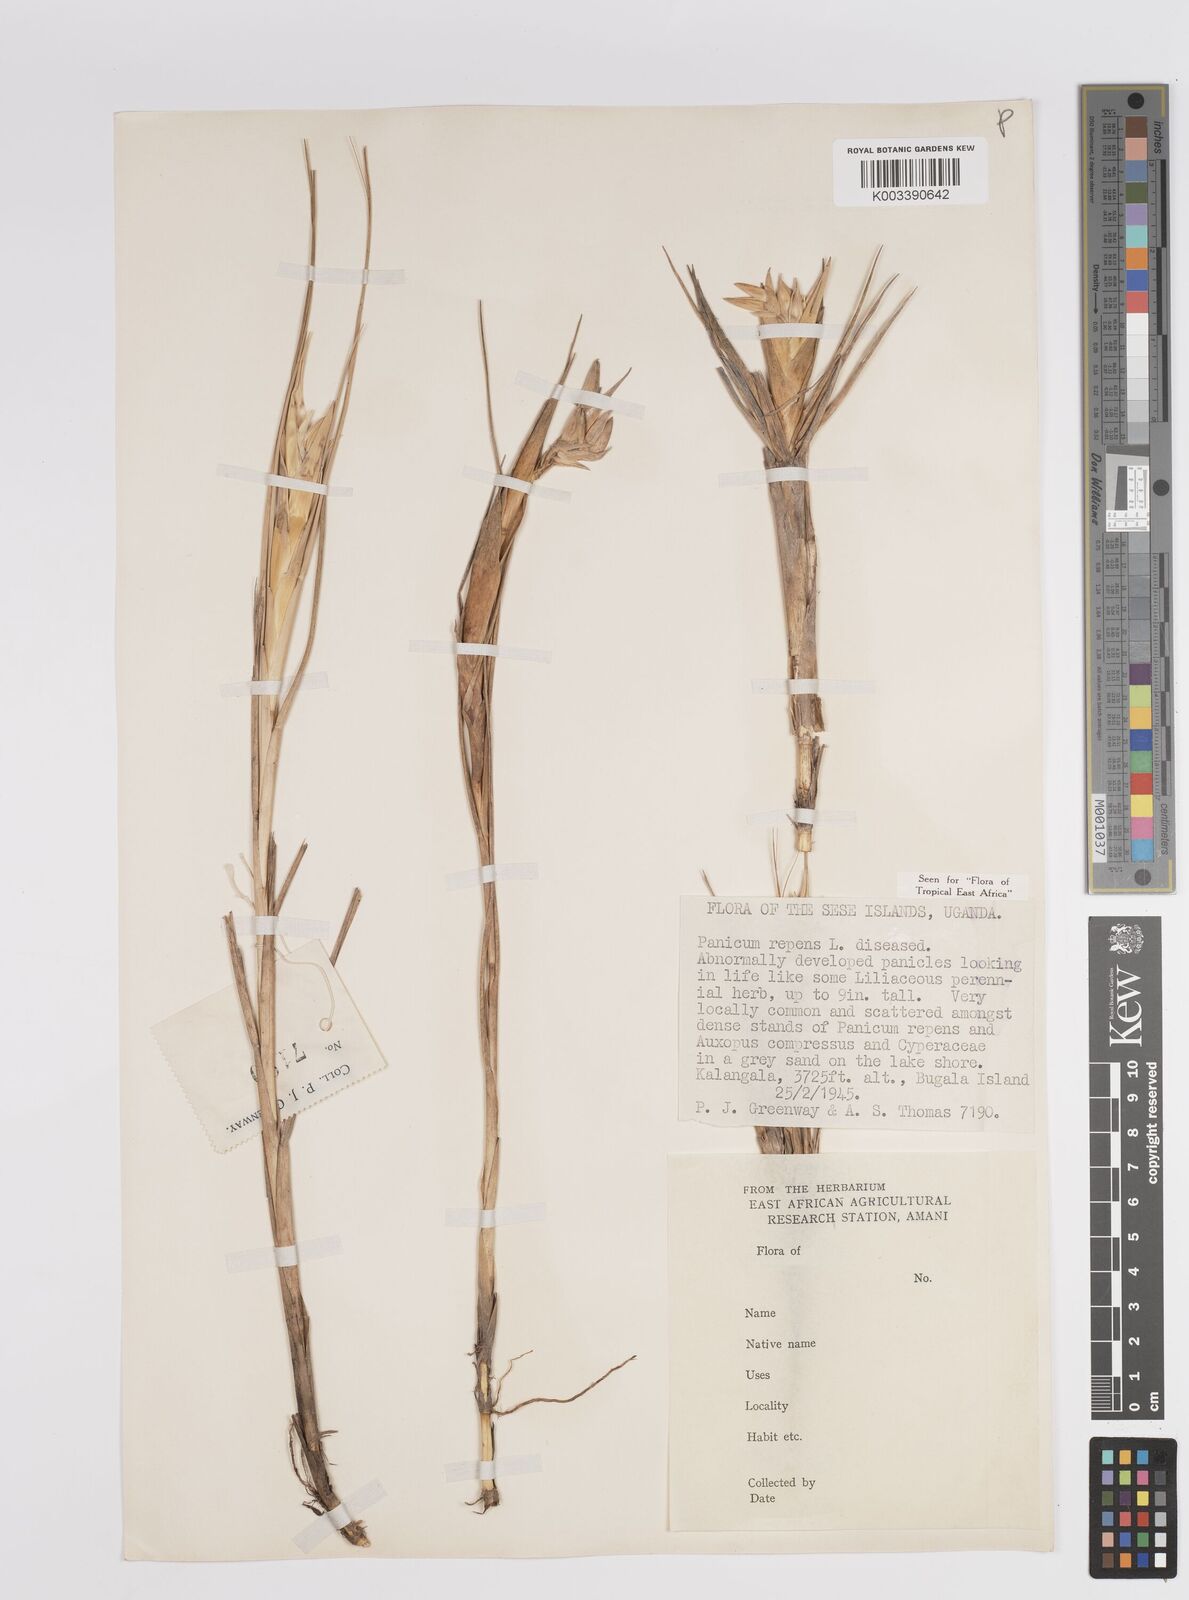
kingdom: Plantae
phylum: Tracheophyta
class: Liliopsida
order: Poales
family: Poaceae
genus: Panicum
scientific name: Panicum repens
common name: Torpedo grass
